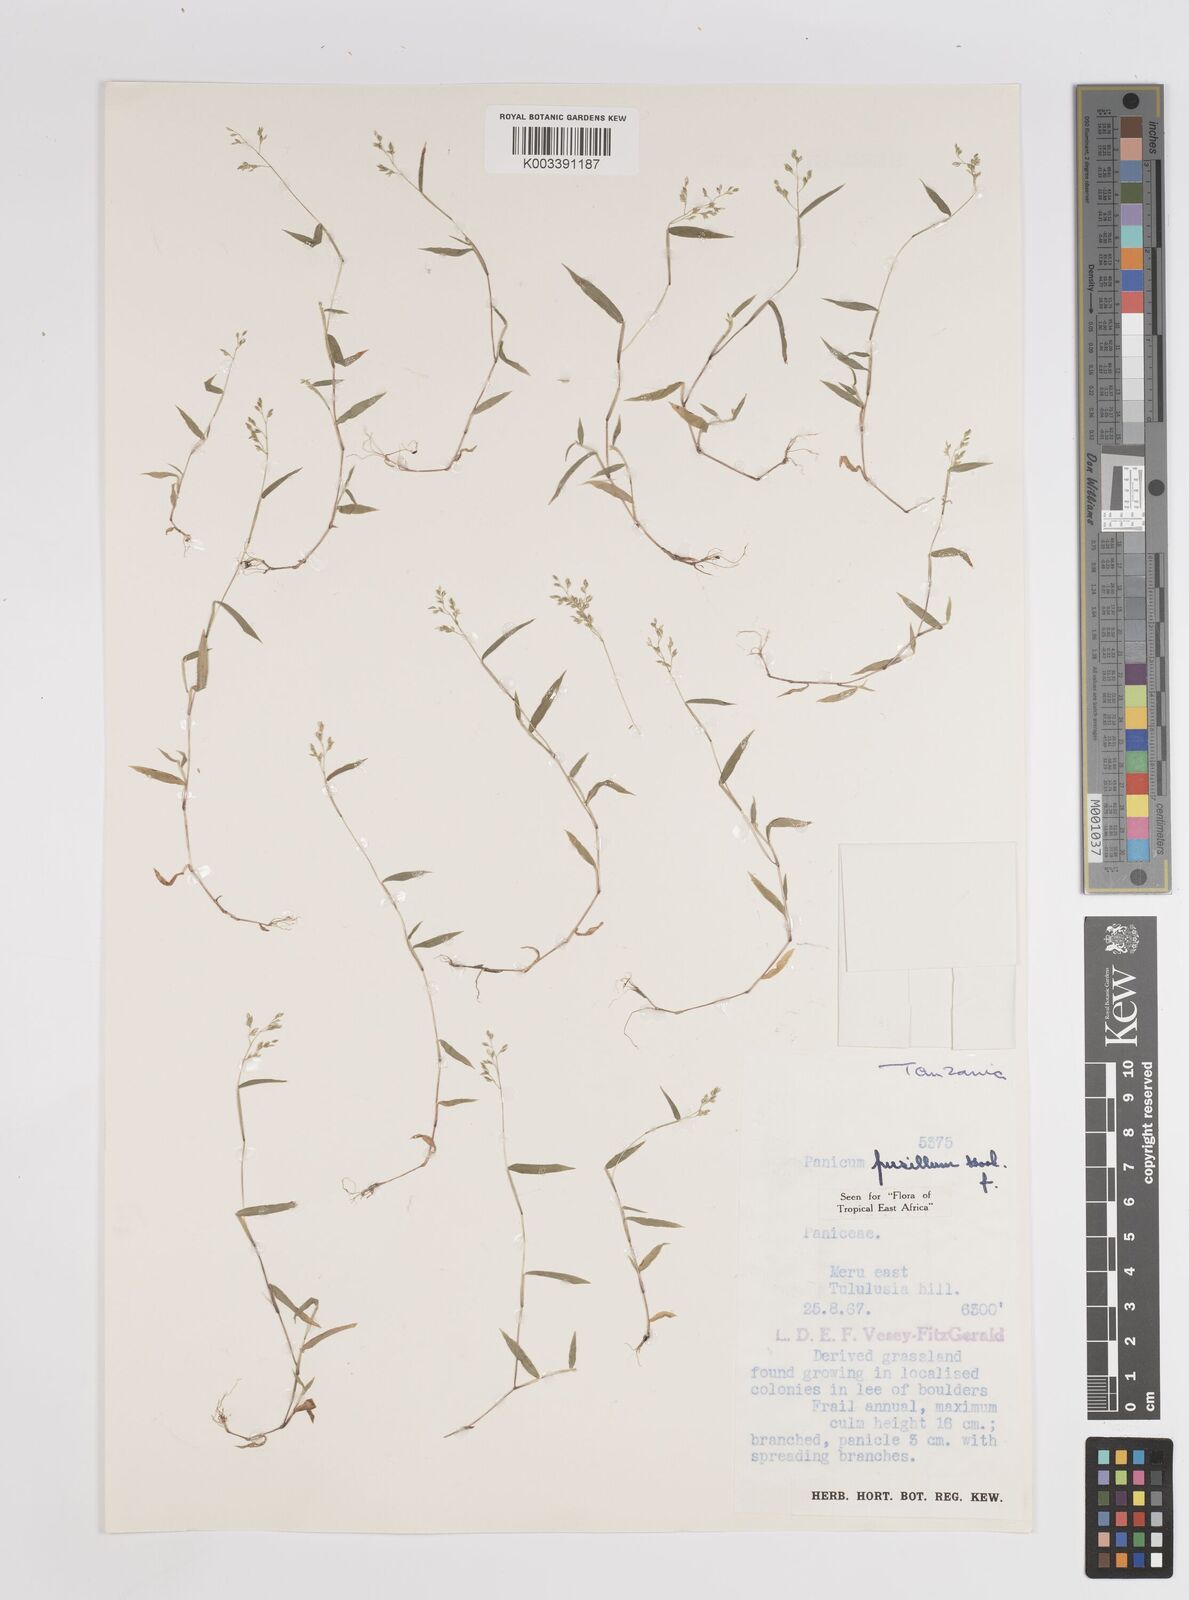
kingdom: Plantae
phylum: Tracheophyta
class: Liliopsida
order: Poales
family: Poaceae
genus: Panicum
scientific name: Panicum pusillum
